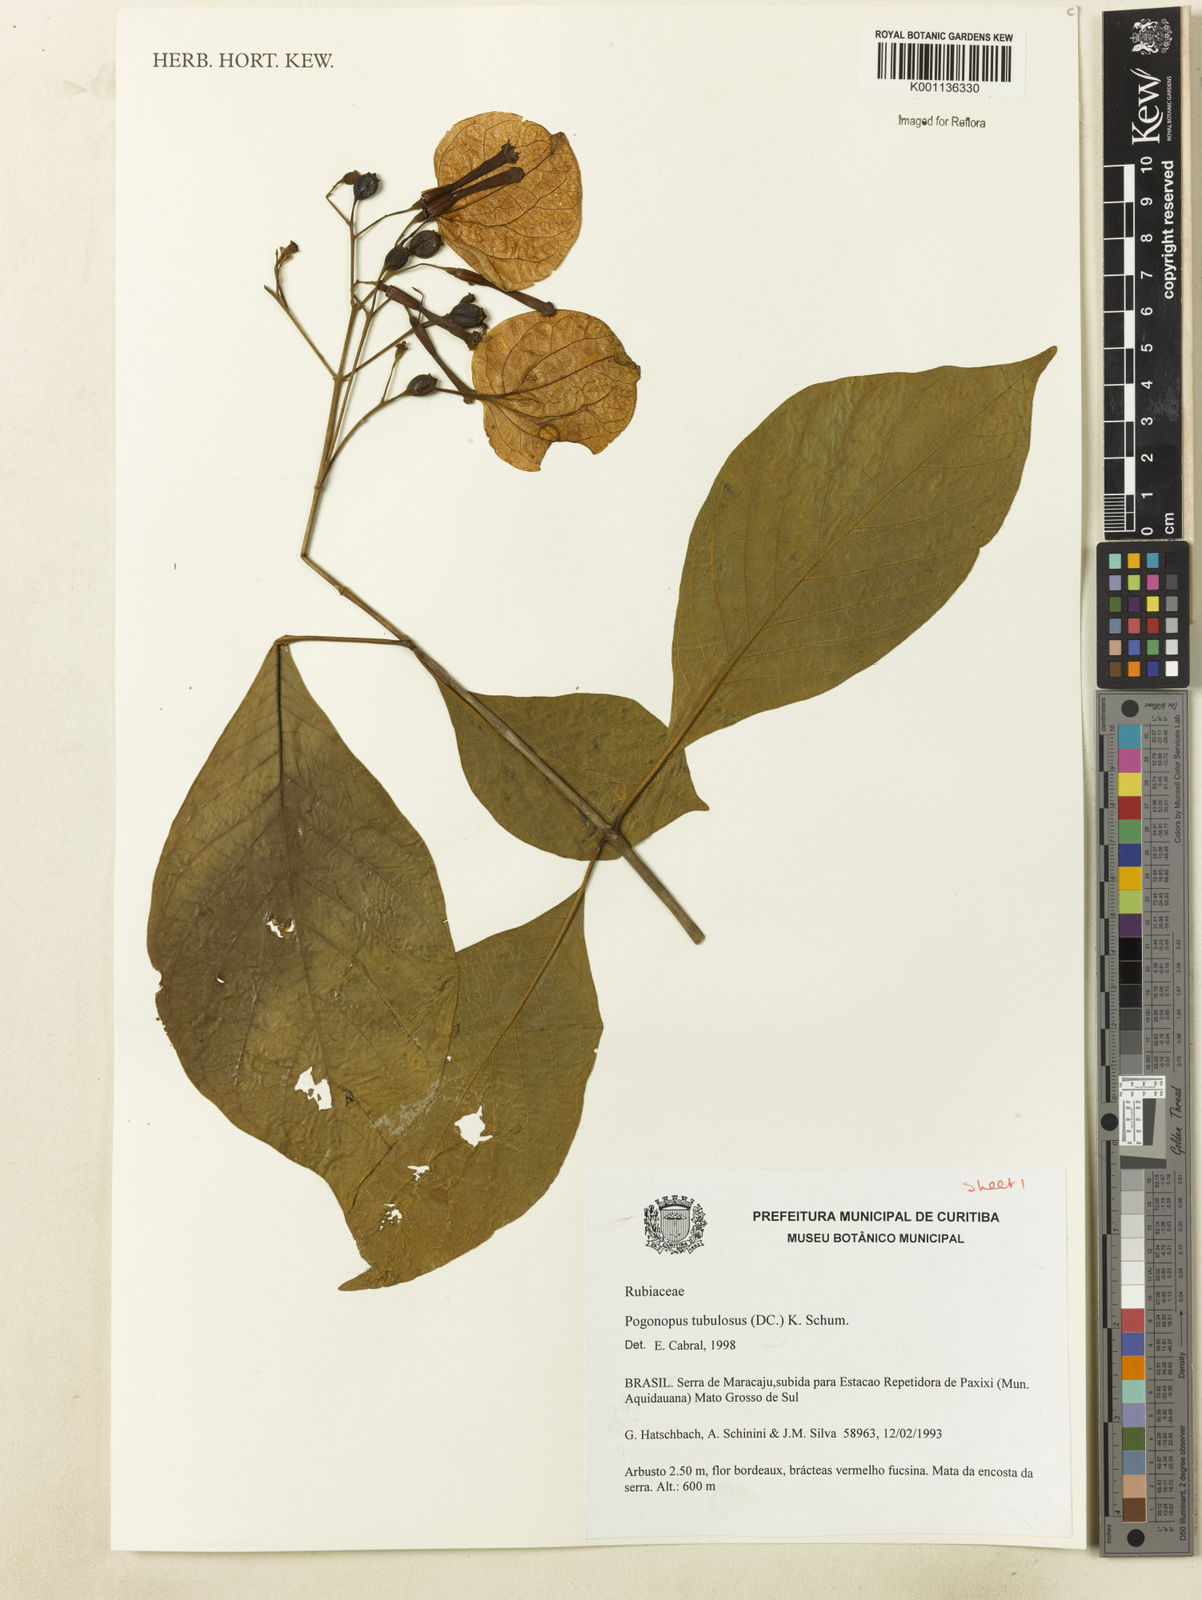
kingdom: Plantae
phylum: Tracheophyta
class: Magnoliopsida
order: Gentianales
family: Rubiaceae
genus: Pogonopus
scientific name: Pogonopus tubulosus
